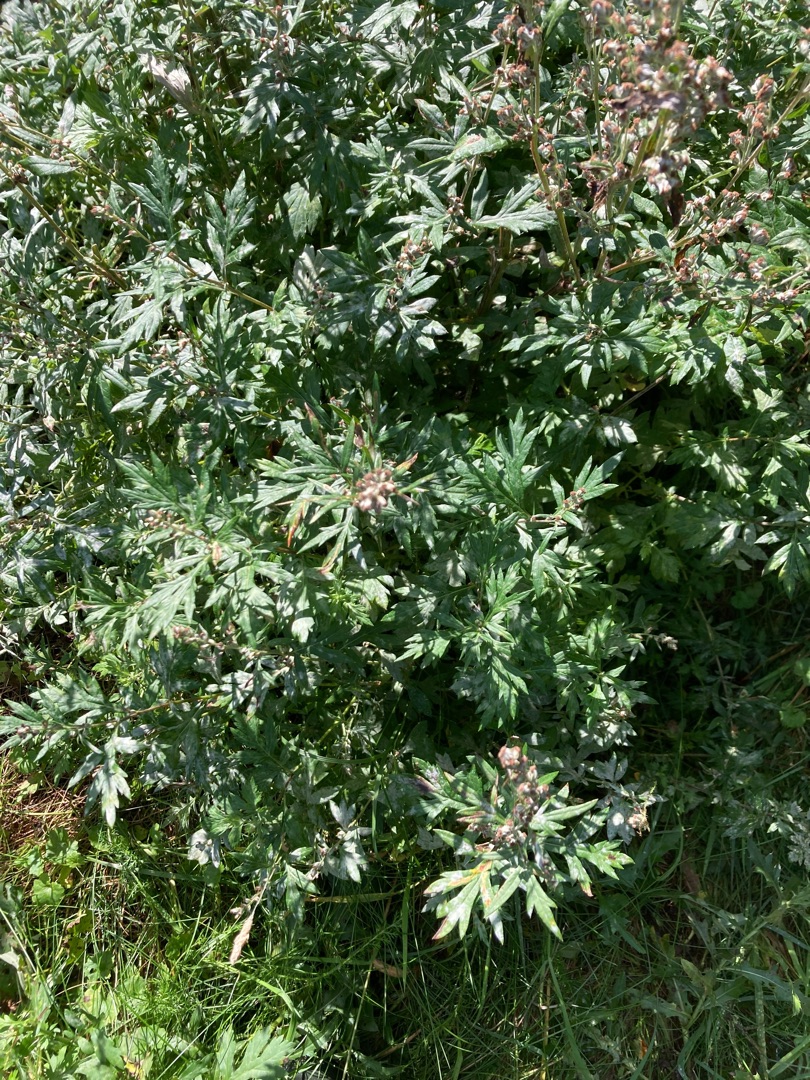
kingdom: Plantae
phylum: Tracheophyta
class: Magnoliopsida
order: Asterales
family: Asteraceae
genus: Artemisia
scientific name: Artemisia vulgaris
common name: Grå-bynke
